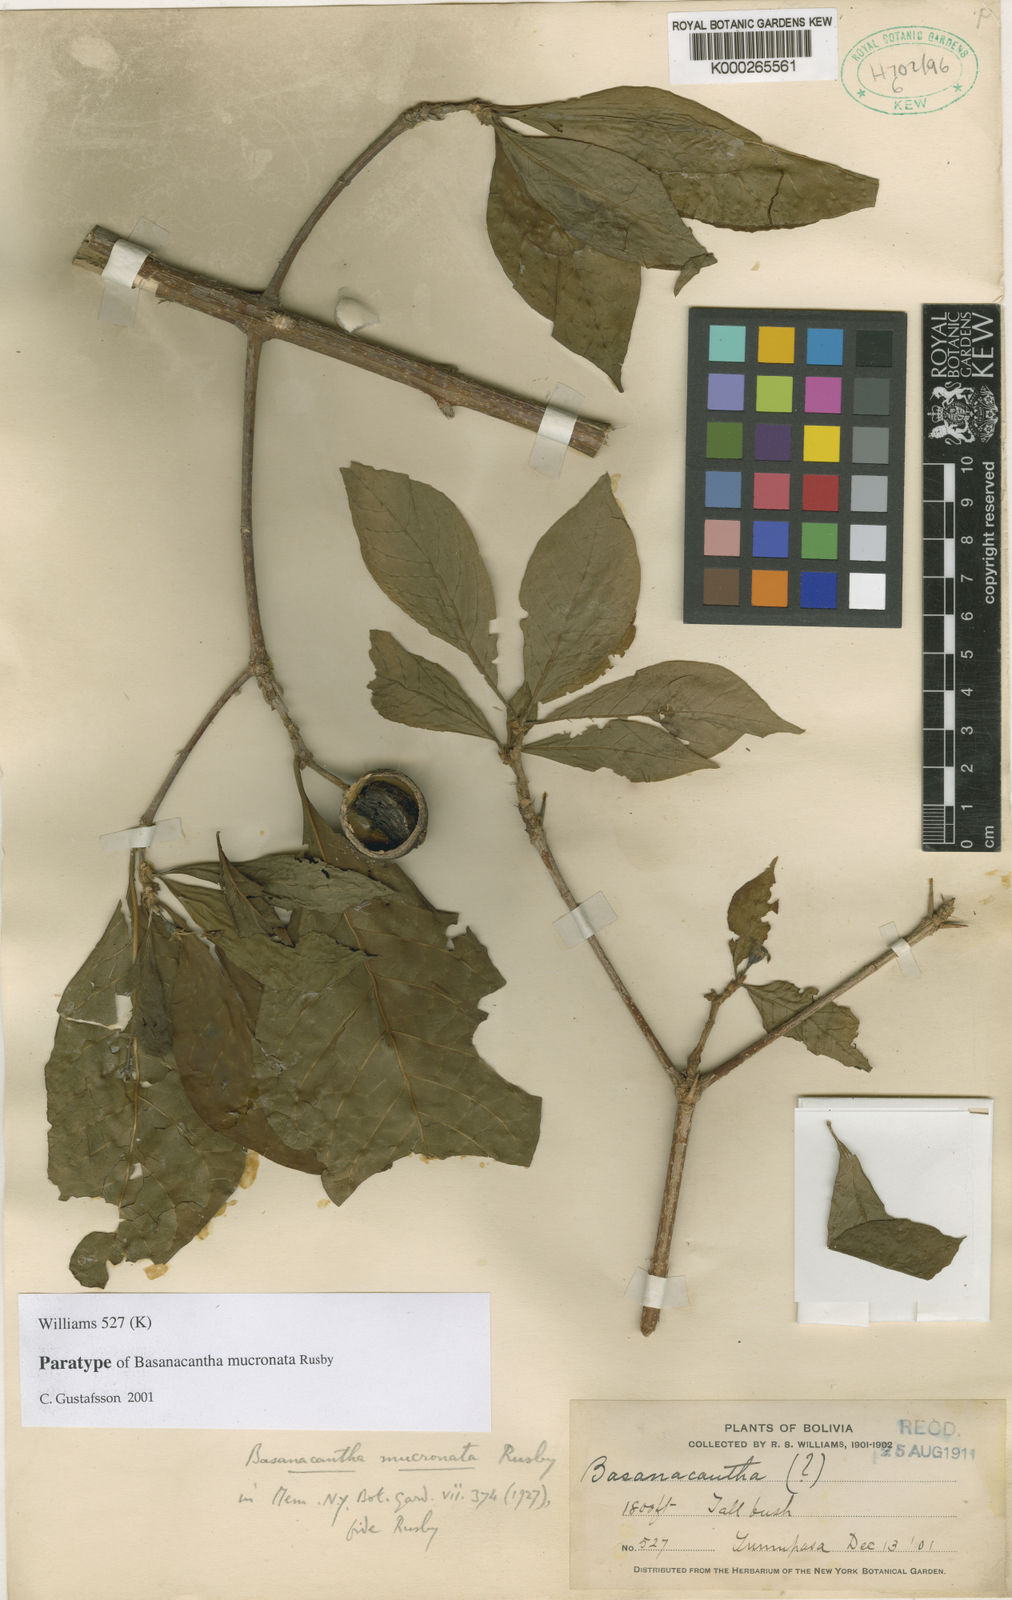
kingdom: Plantae
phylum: Tracheophyta
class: Magnoliopsida
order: Gentianales
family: Rubiaceae
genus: Randia
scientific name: Randia calycina
